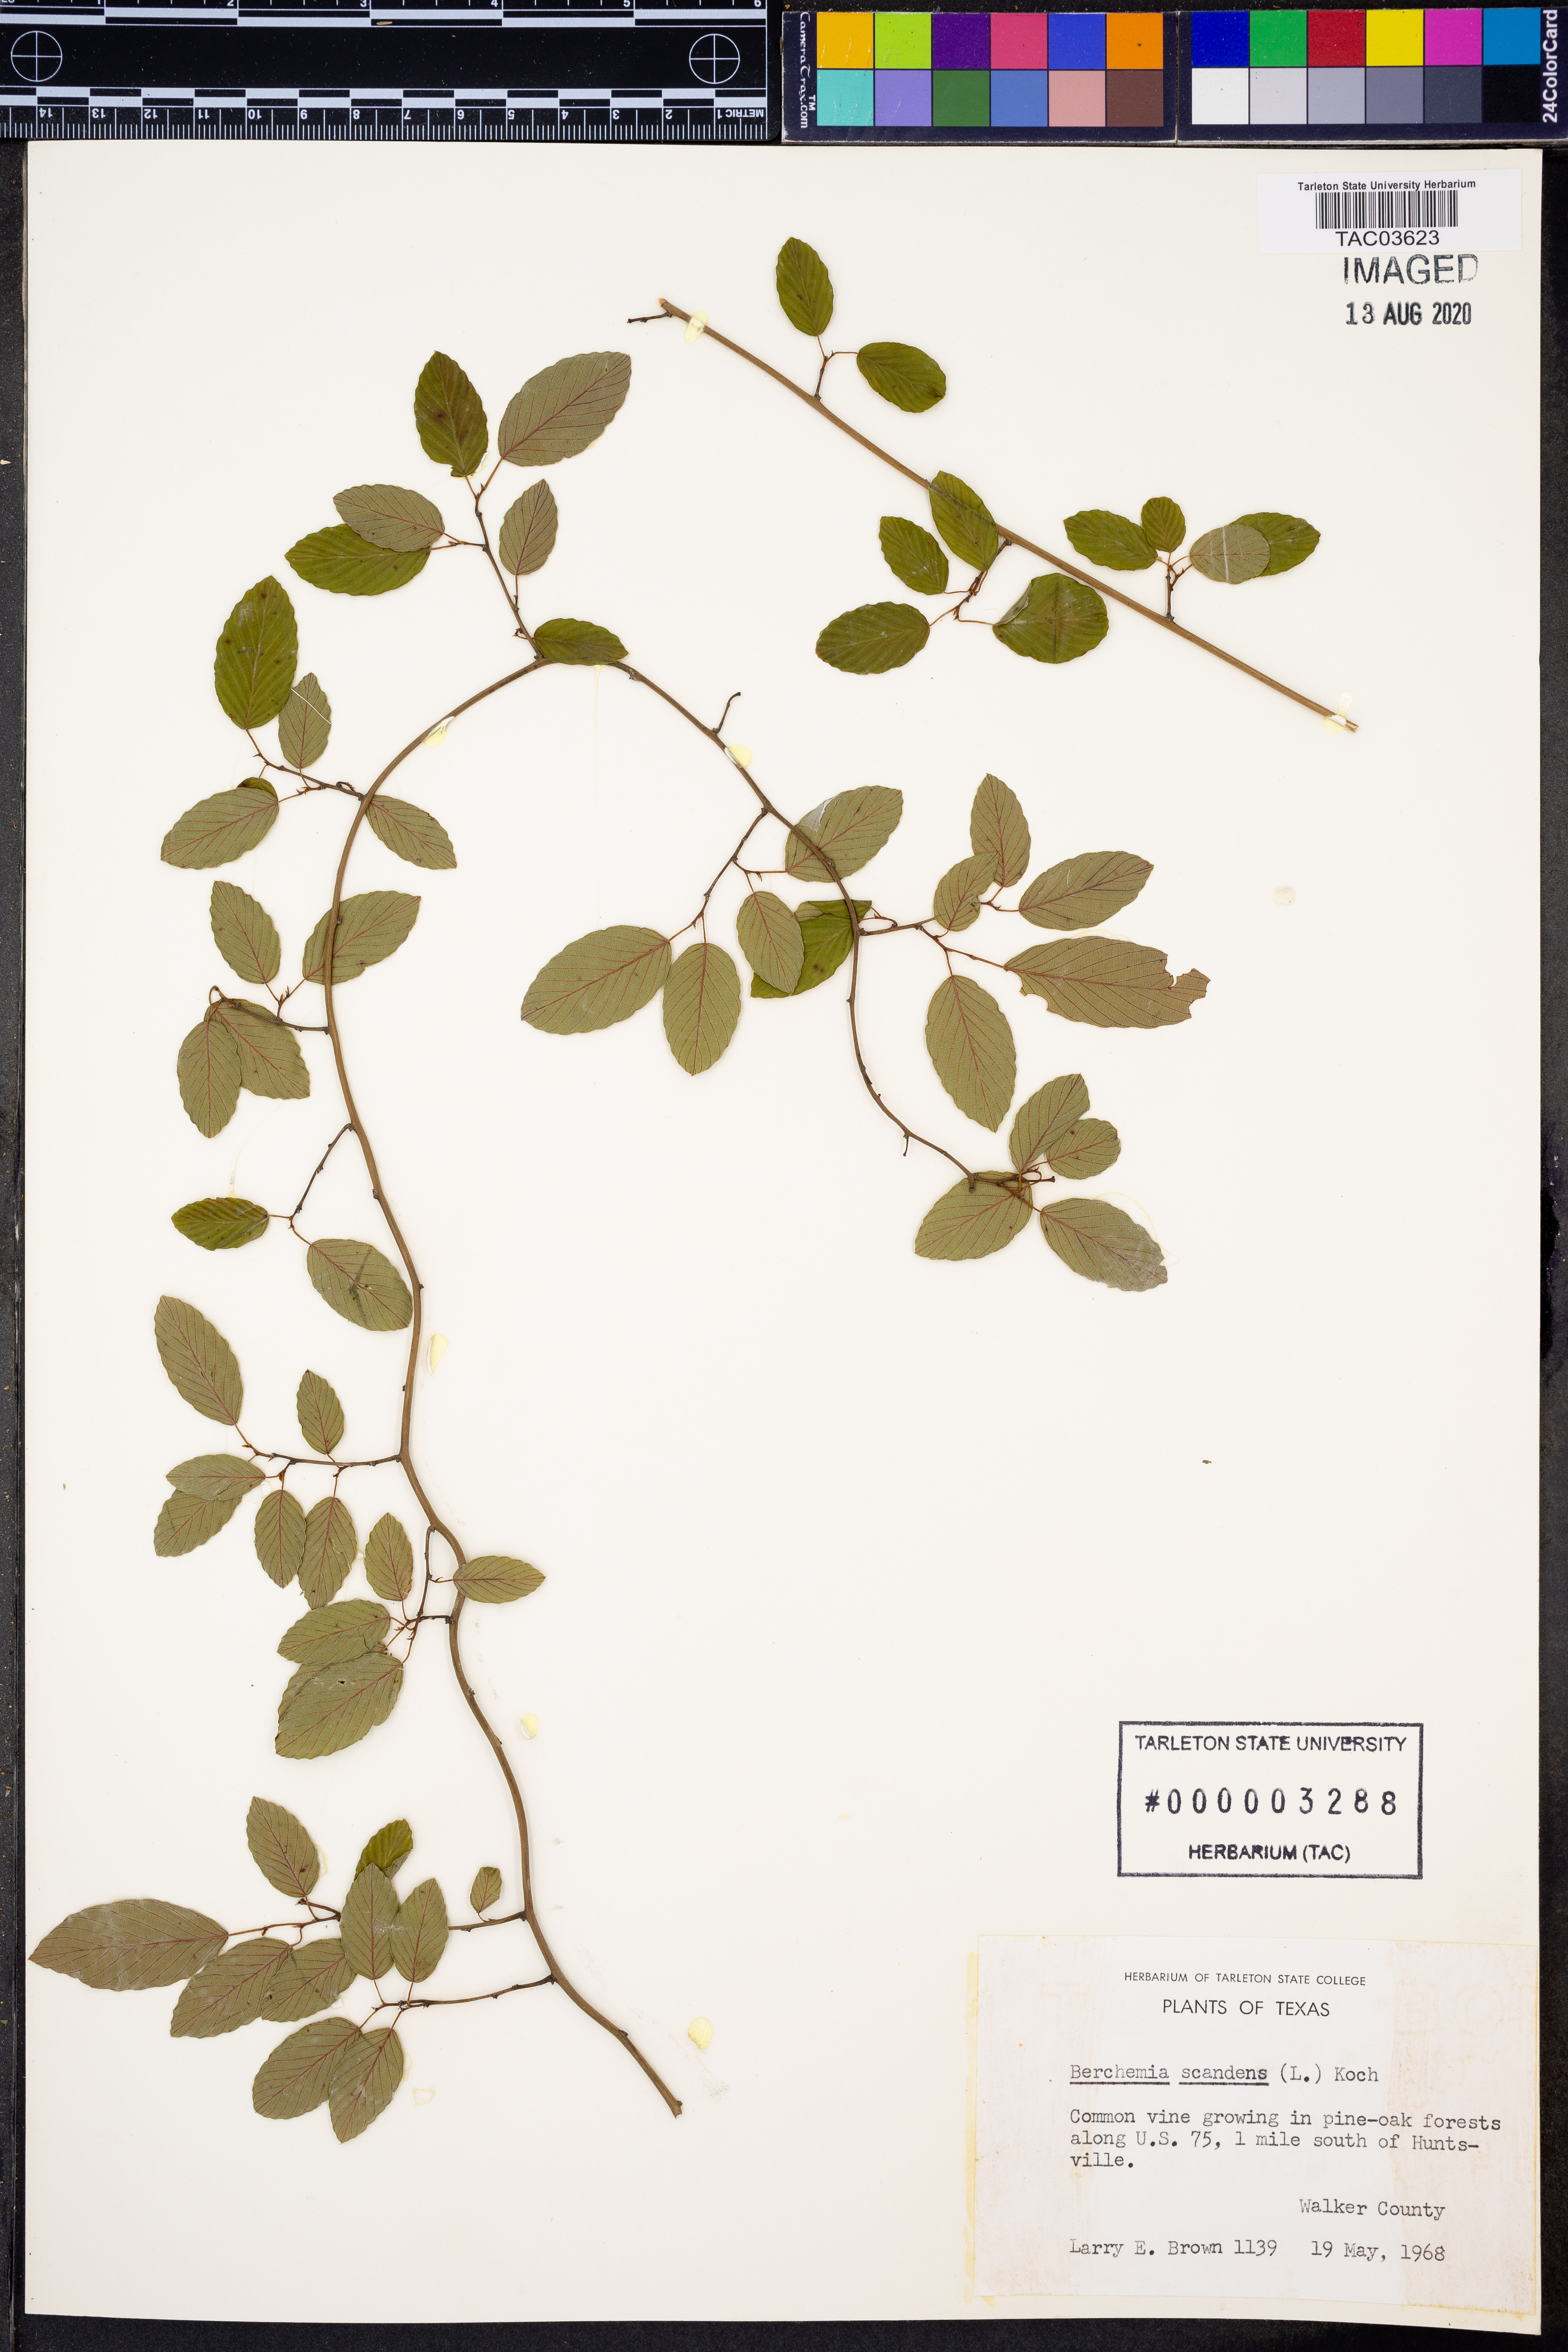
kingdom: Plantae
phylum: Tracheophyta
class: Magnoliopsida
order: Rosales
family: Rhamnaceae
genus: Berchemia
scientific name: Berchemia scandens
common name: Supplejack
